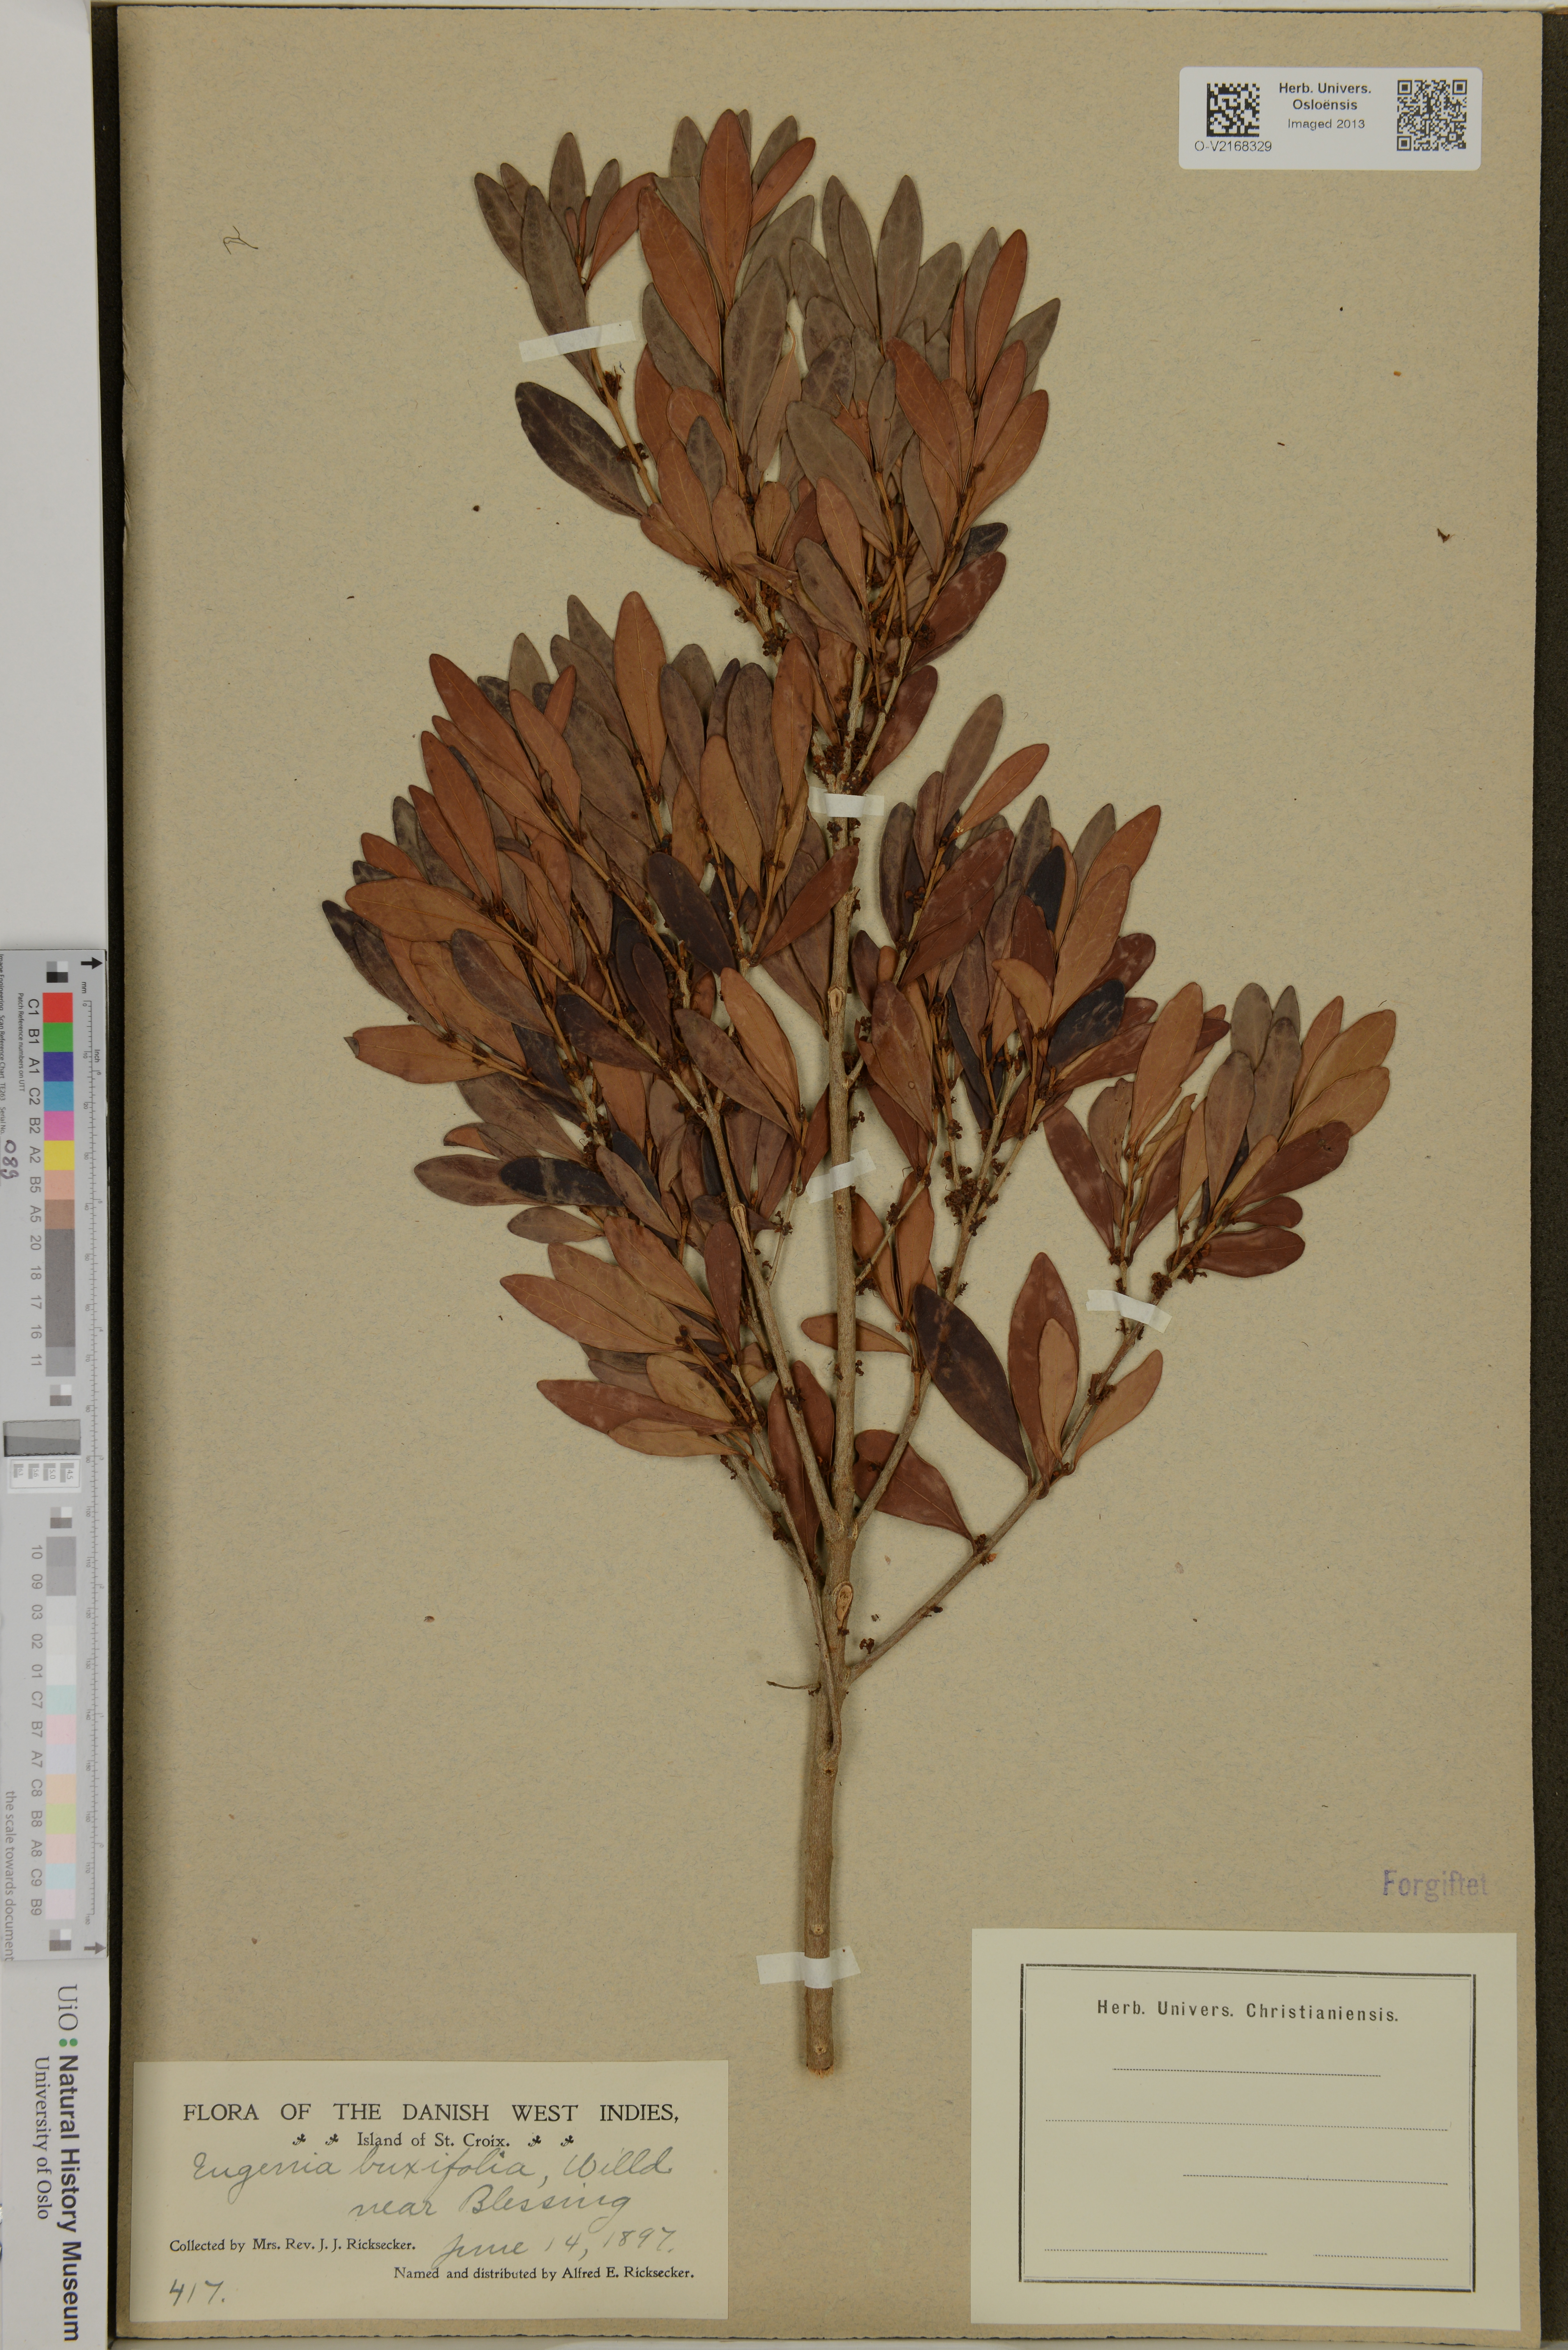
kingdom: Plantae
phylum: Tracheophyta
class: Magnoliopsida
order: Myrtales
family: Myrtaceae
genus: Eugenia
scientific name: Eugenia buxifolia
